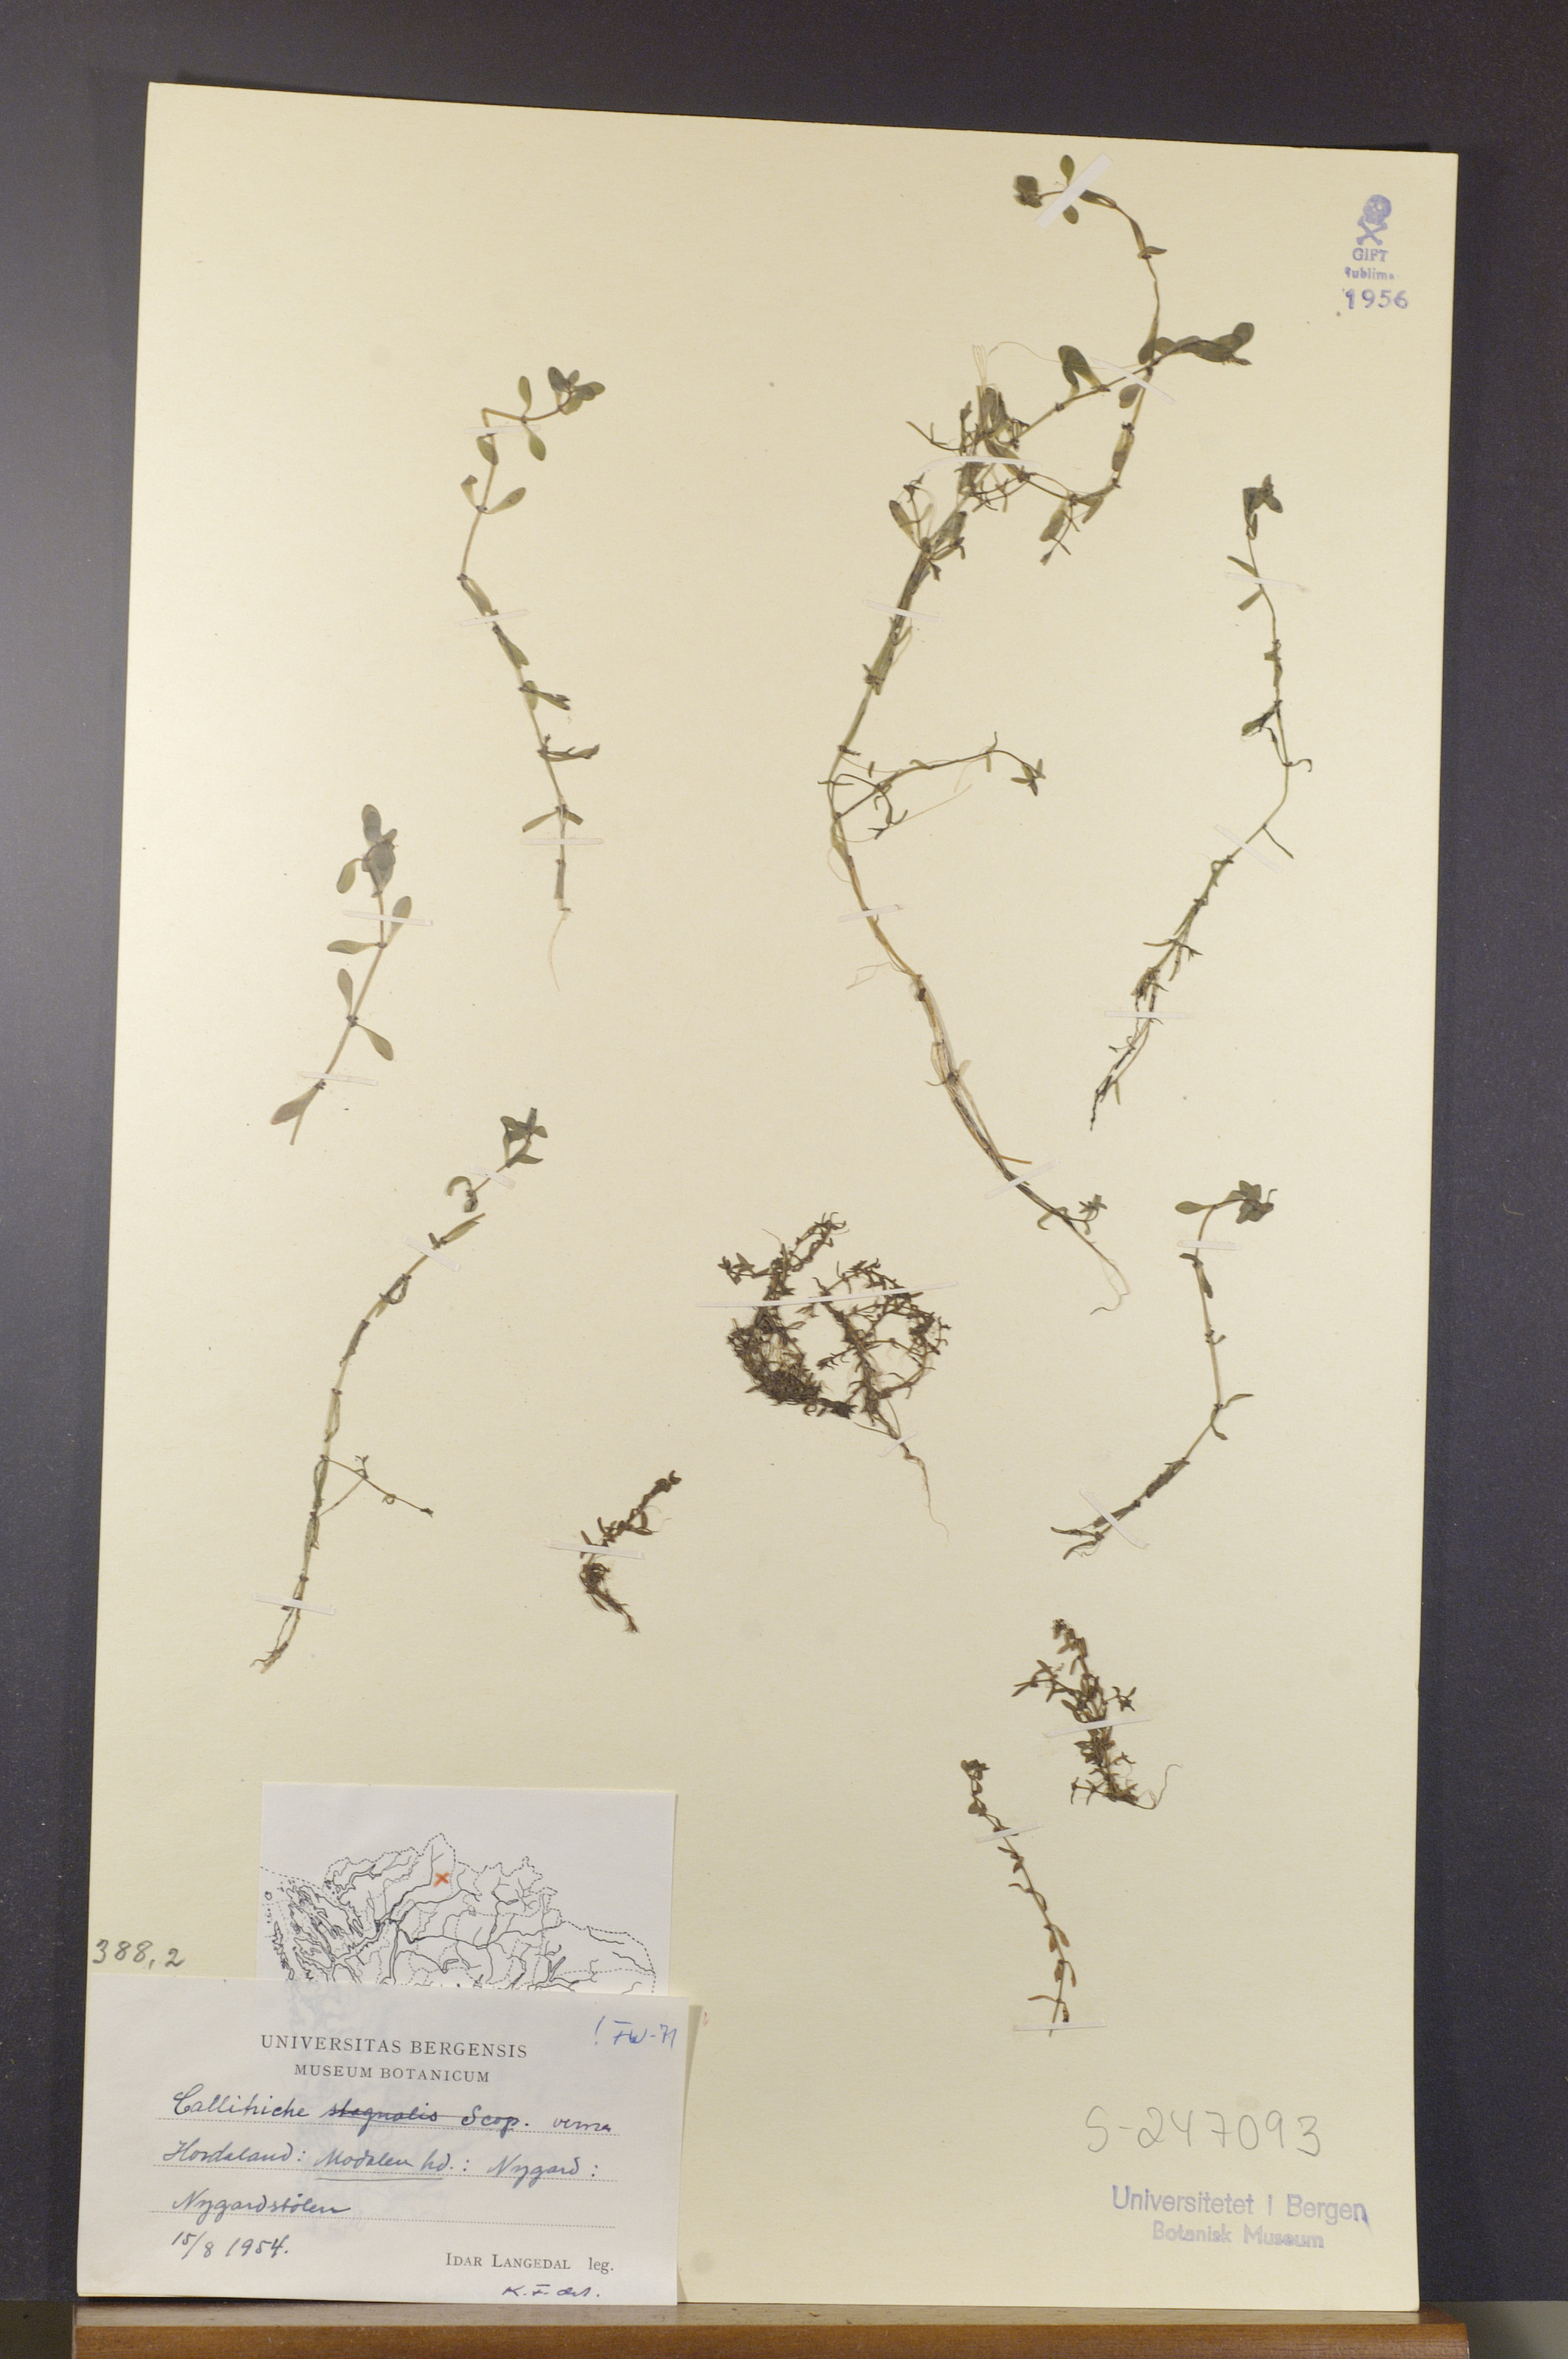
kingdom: Plantae
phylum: Tracheophyta
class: Magnoliopsida
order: Lamiales
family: Plantaginaceae
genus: Callitriche
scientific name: Callitriche palustris
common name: Spring water-starwort
